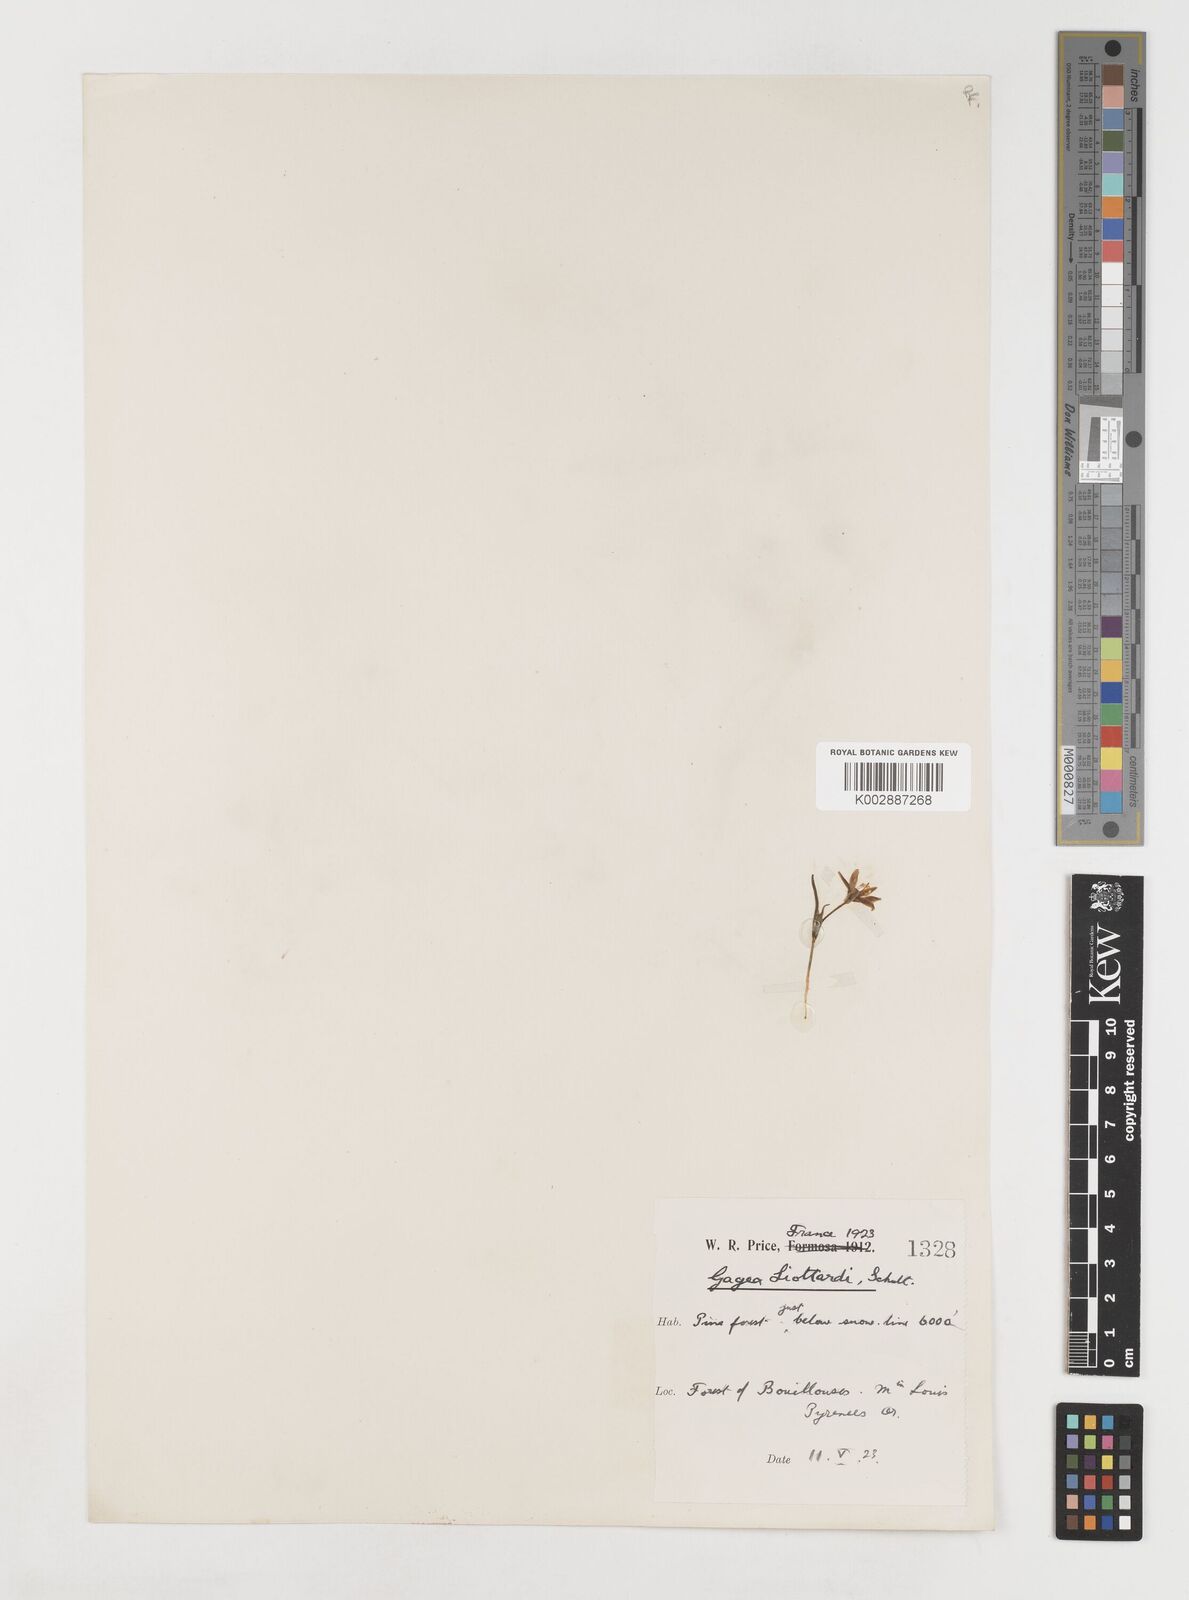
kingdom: Plantae
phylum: Tracheophyta
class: Liliopsida
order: Liliales
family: Liliaceae
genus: Gagea
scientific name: Gagea bohemica
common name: Early star-of-bethlehem
